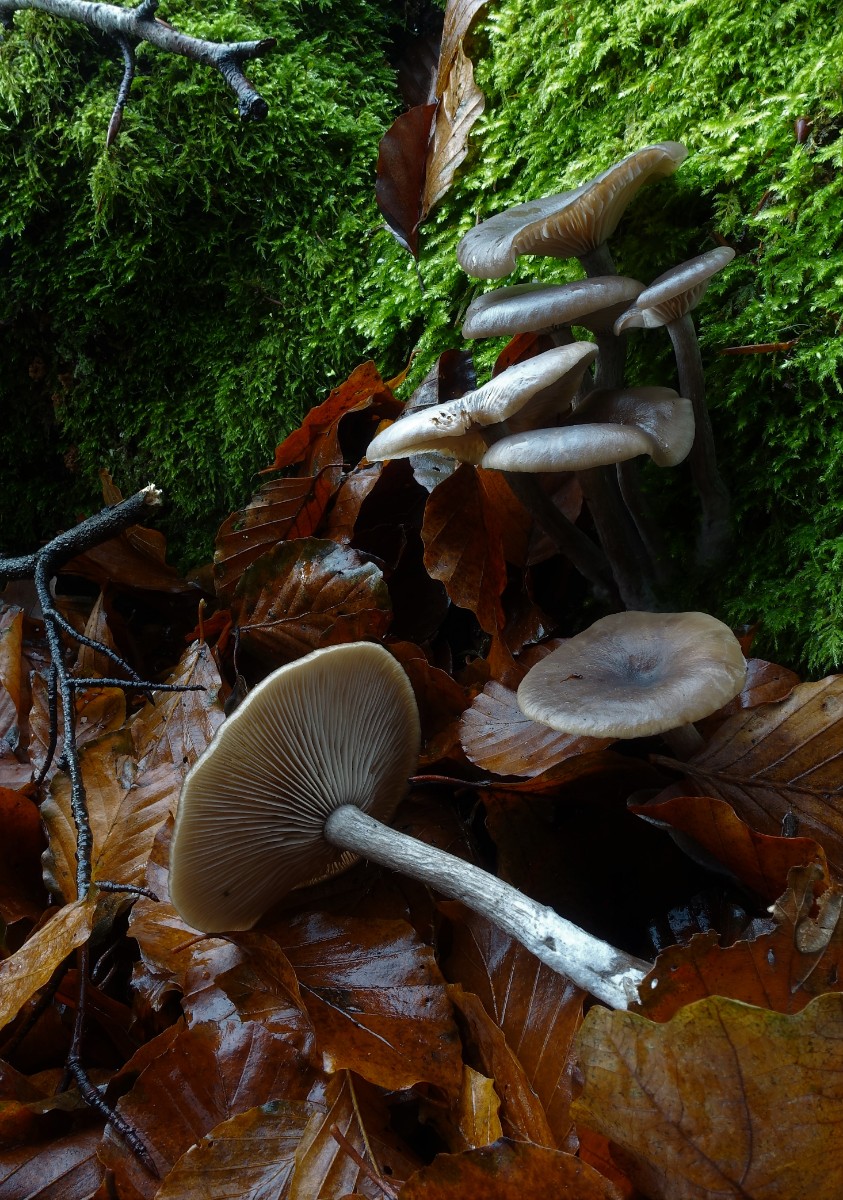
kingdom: Fungi
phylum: Basidiomycota
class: Agaricomycetes
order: Agaricales
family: Pseudoclitocybaceae
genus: Pseudoclitocybe
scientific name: Pseudoclitocybe cyathiformis
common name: almindelig bægertragthat
